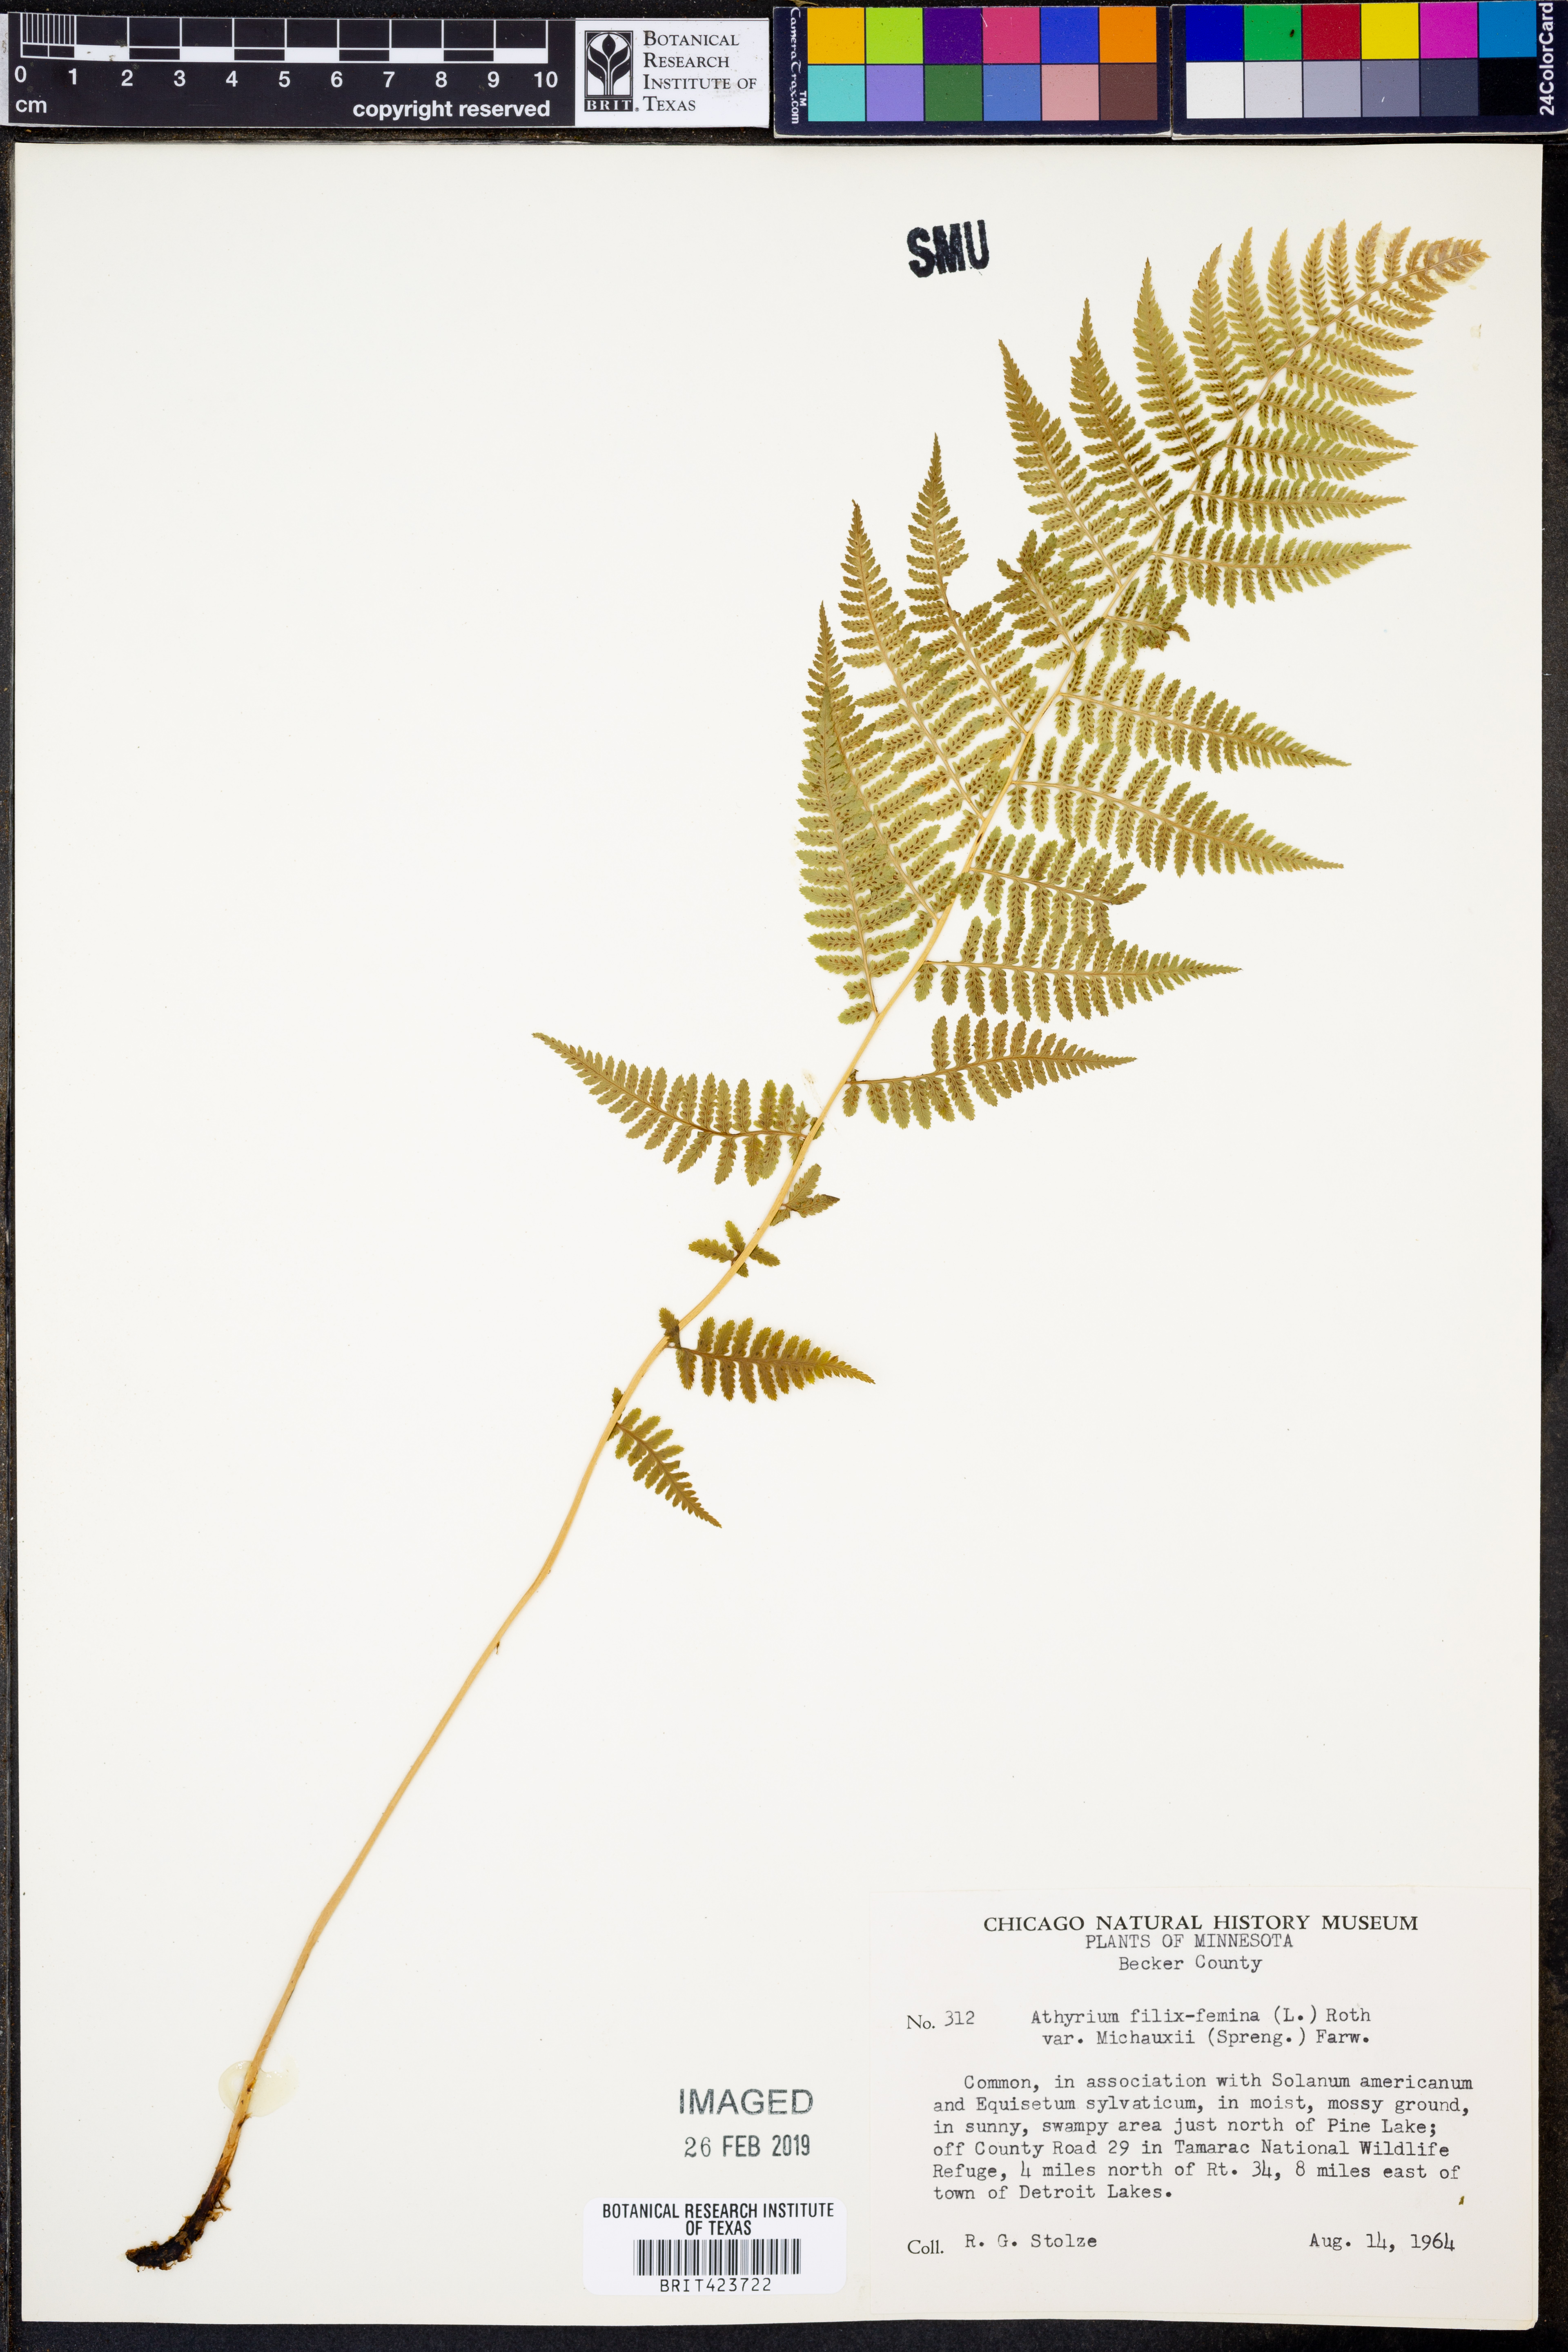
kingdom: Plantae
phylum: Tracheophyta
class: Polypodiopsida
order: Polypodiales
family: Athyriaceae
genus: Athyrium
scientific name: Athyrium angustum
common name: Northern lady fern
